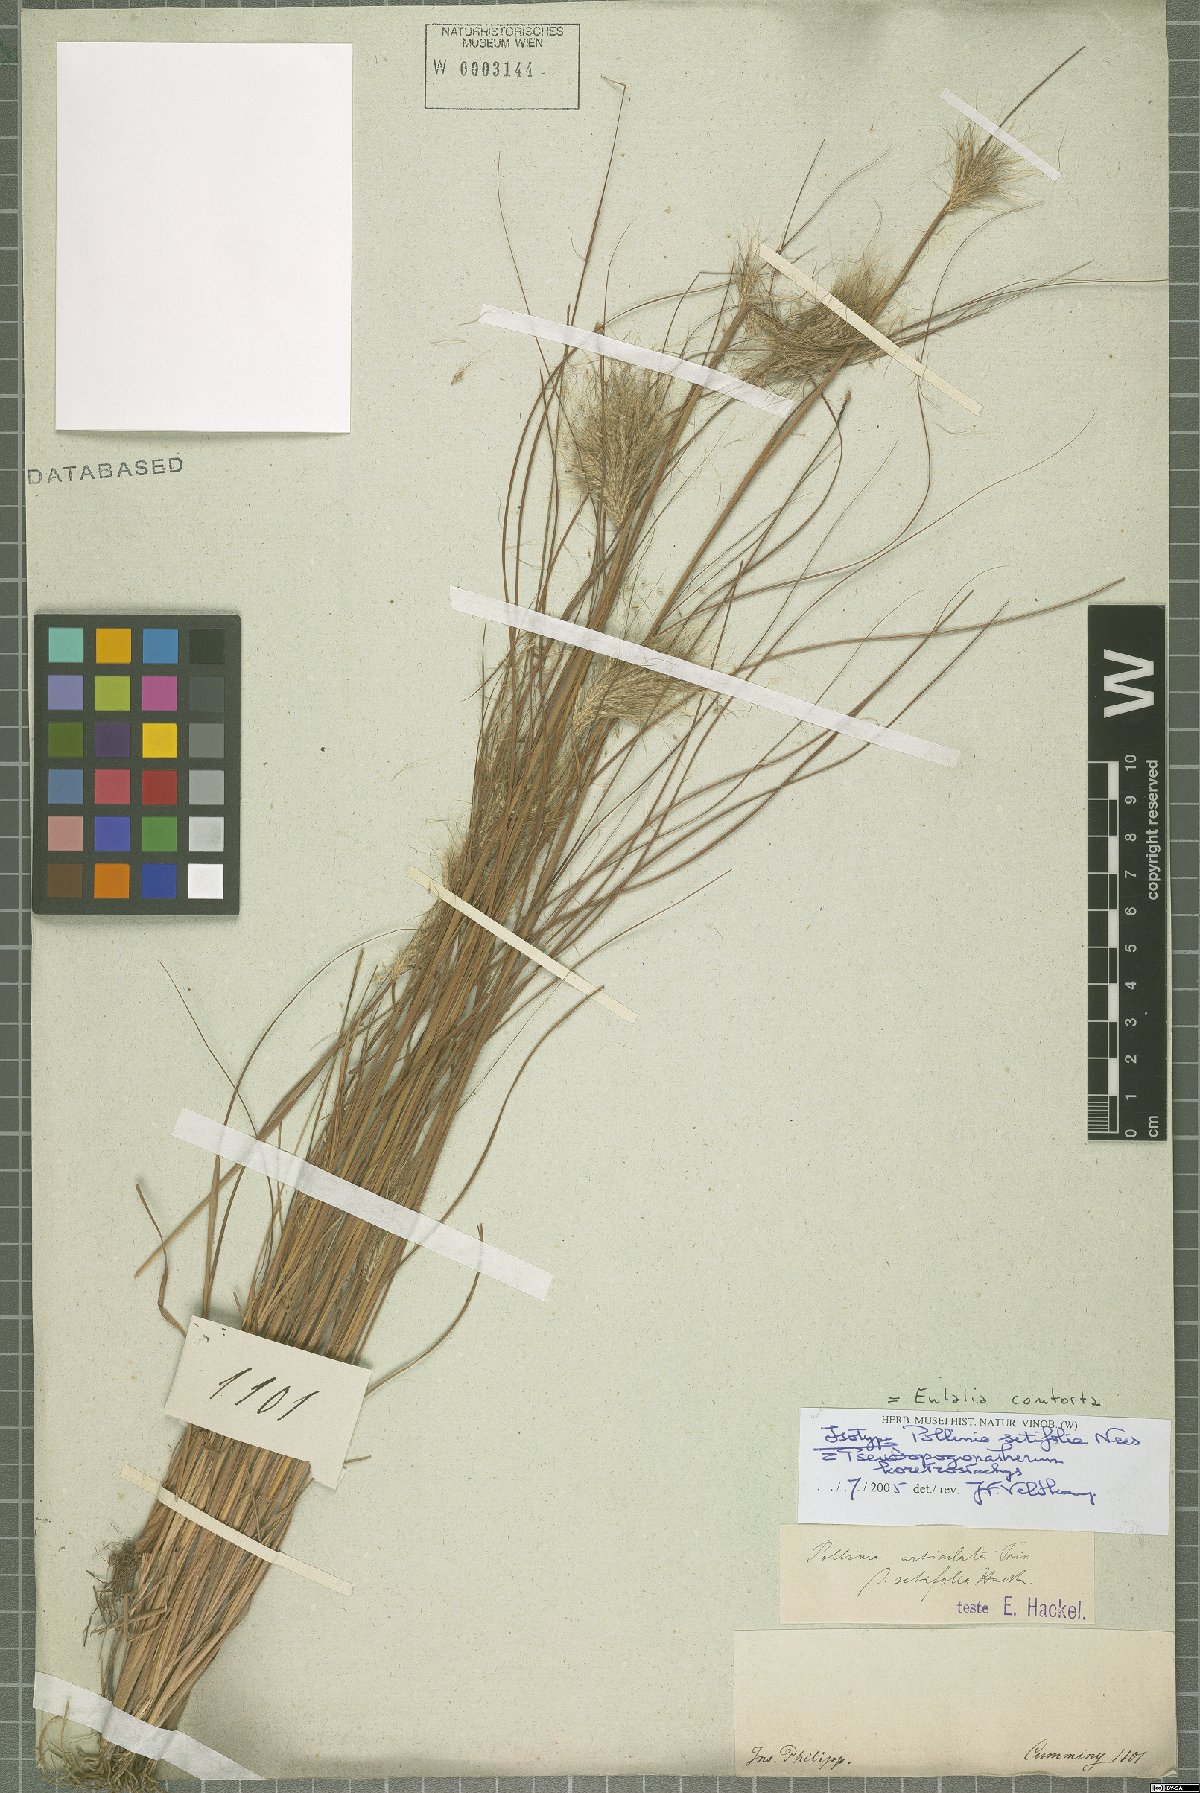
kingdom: Plantae
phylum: Tracheophyta
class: Liliopsida
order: Poales
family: Poaceae
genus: Pseudopogonatherum
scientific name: Pseudopogonatherum contortum
